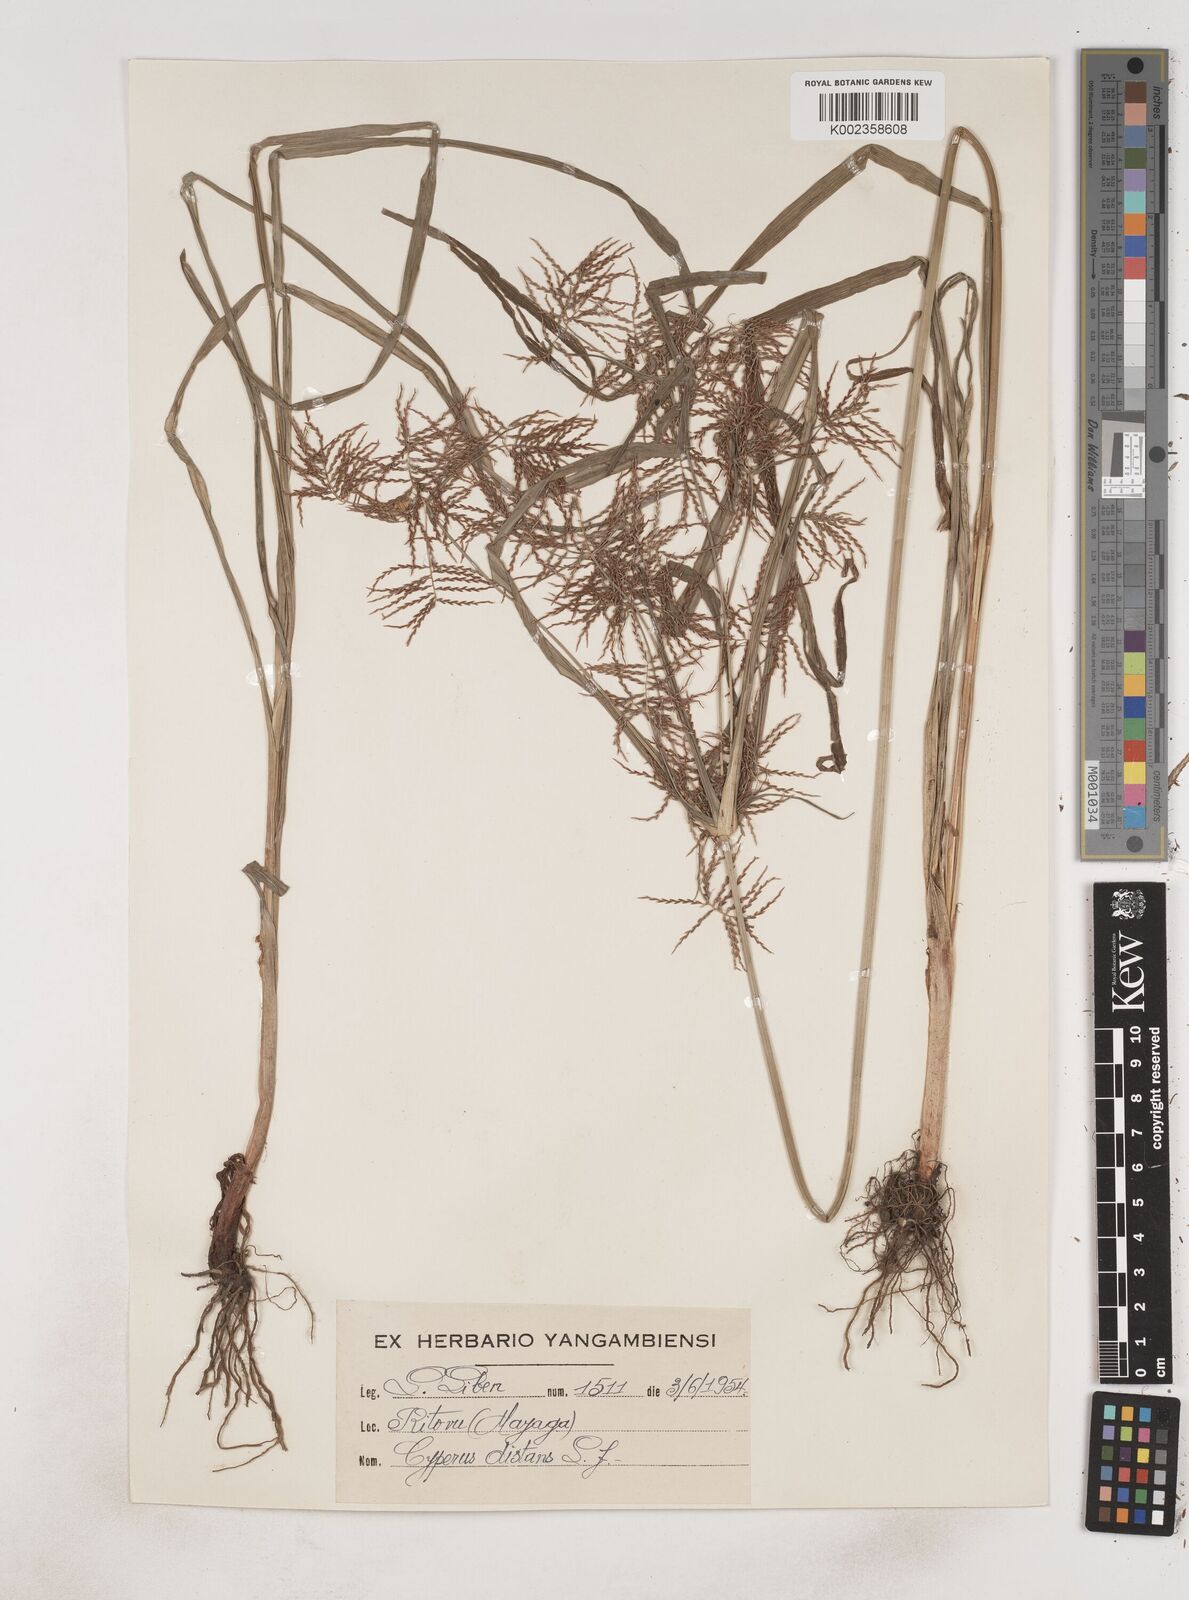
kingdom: Plantae
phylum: Tracheophyta
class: Liliopsida
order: Poales
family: Cyperaceae
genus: Cyperus
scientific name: Cyperus distans
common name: Slender cyperus
